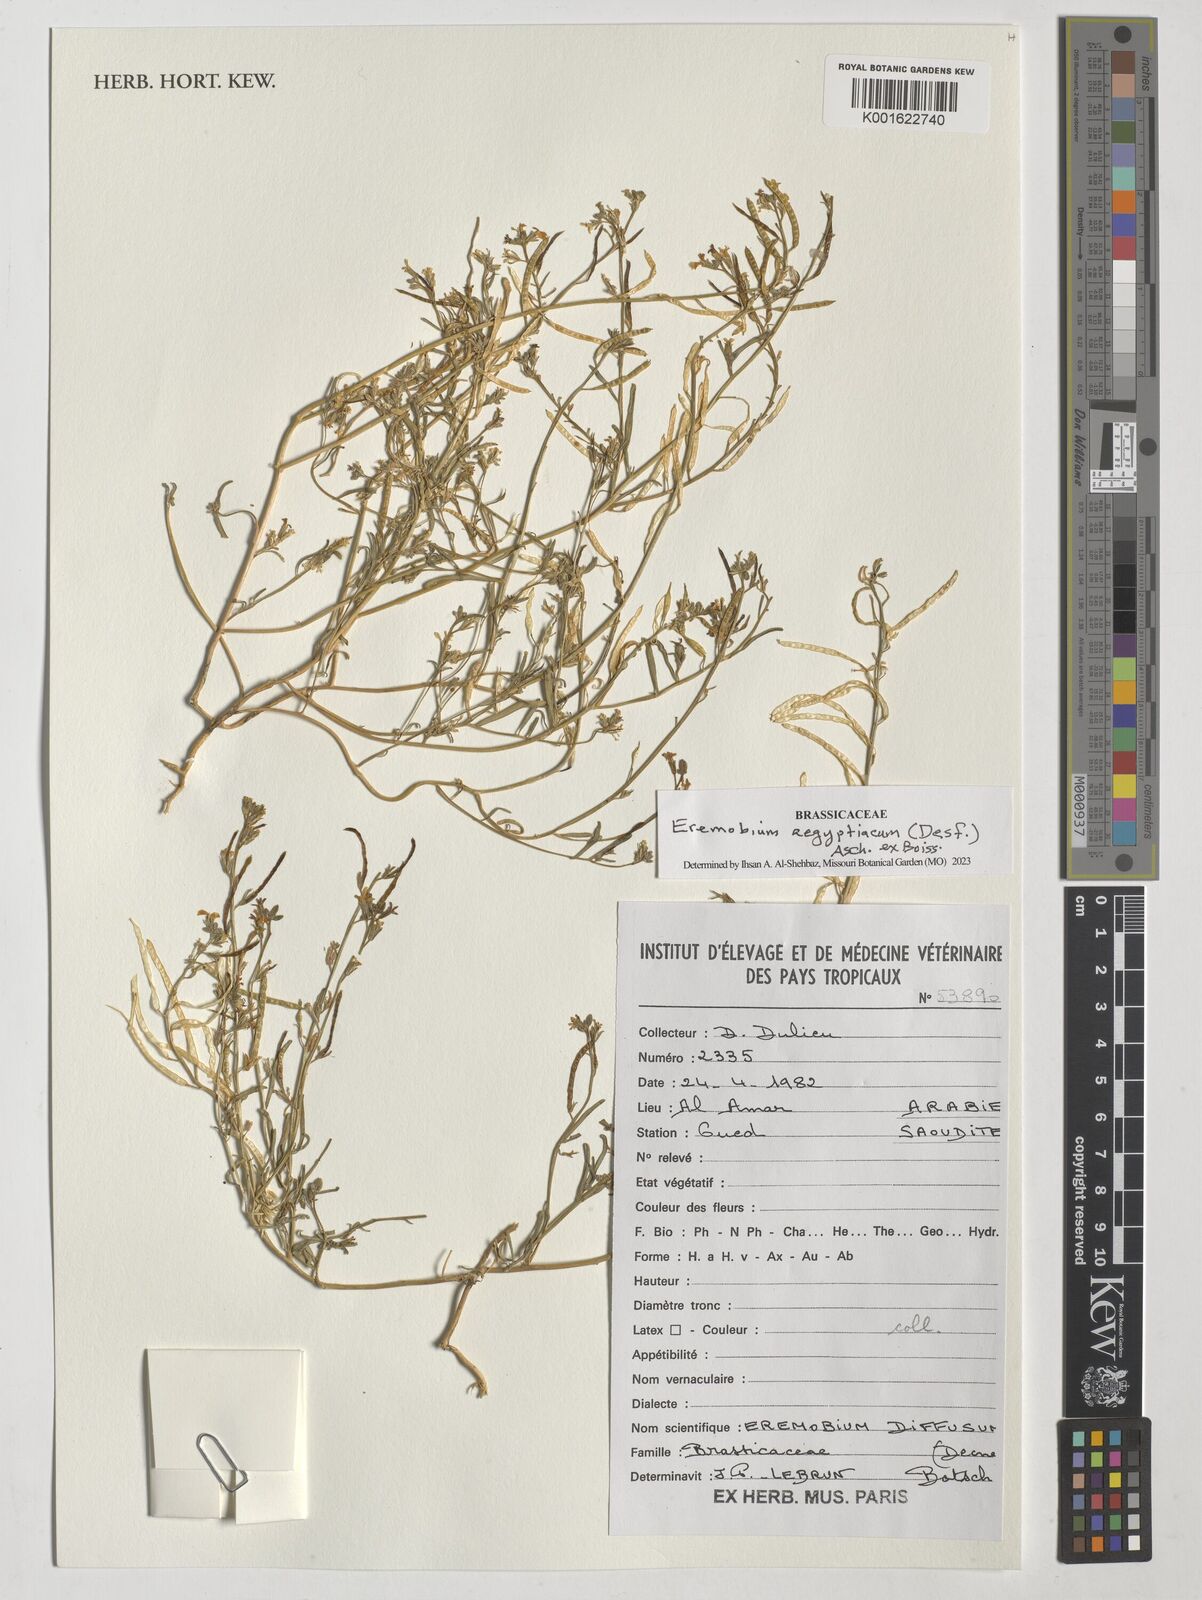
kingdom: Plantae
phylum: Tracheophyta
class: Magnoliopsida
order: Brassicales
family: Brassicaceae
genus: Eremobium
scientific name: Eremobium aegyptiacum
